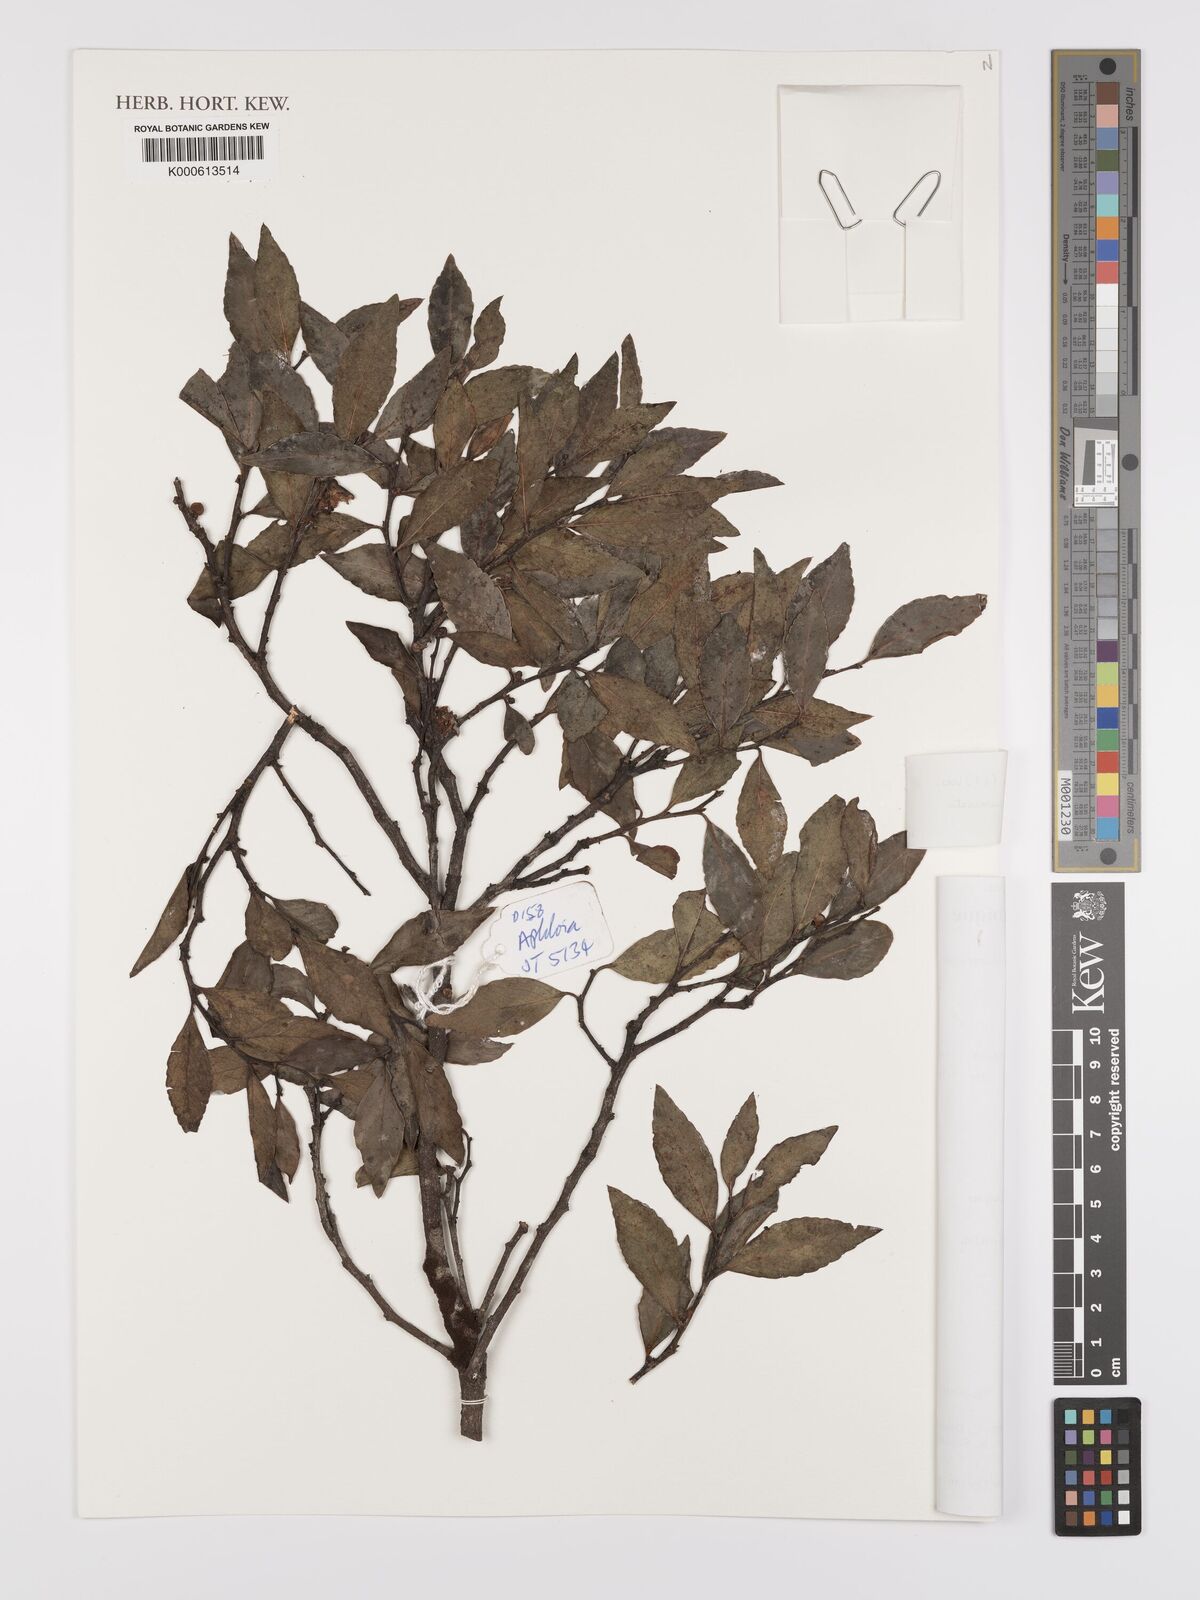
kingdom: Plantae
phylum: Tracheophyta
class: Magnoliopsida
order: Celastrales
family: Celastraceae
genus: Gymnosporia
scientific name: Gymnosporia acuminata
